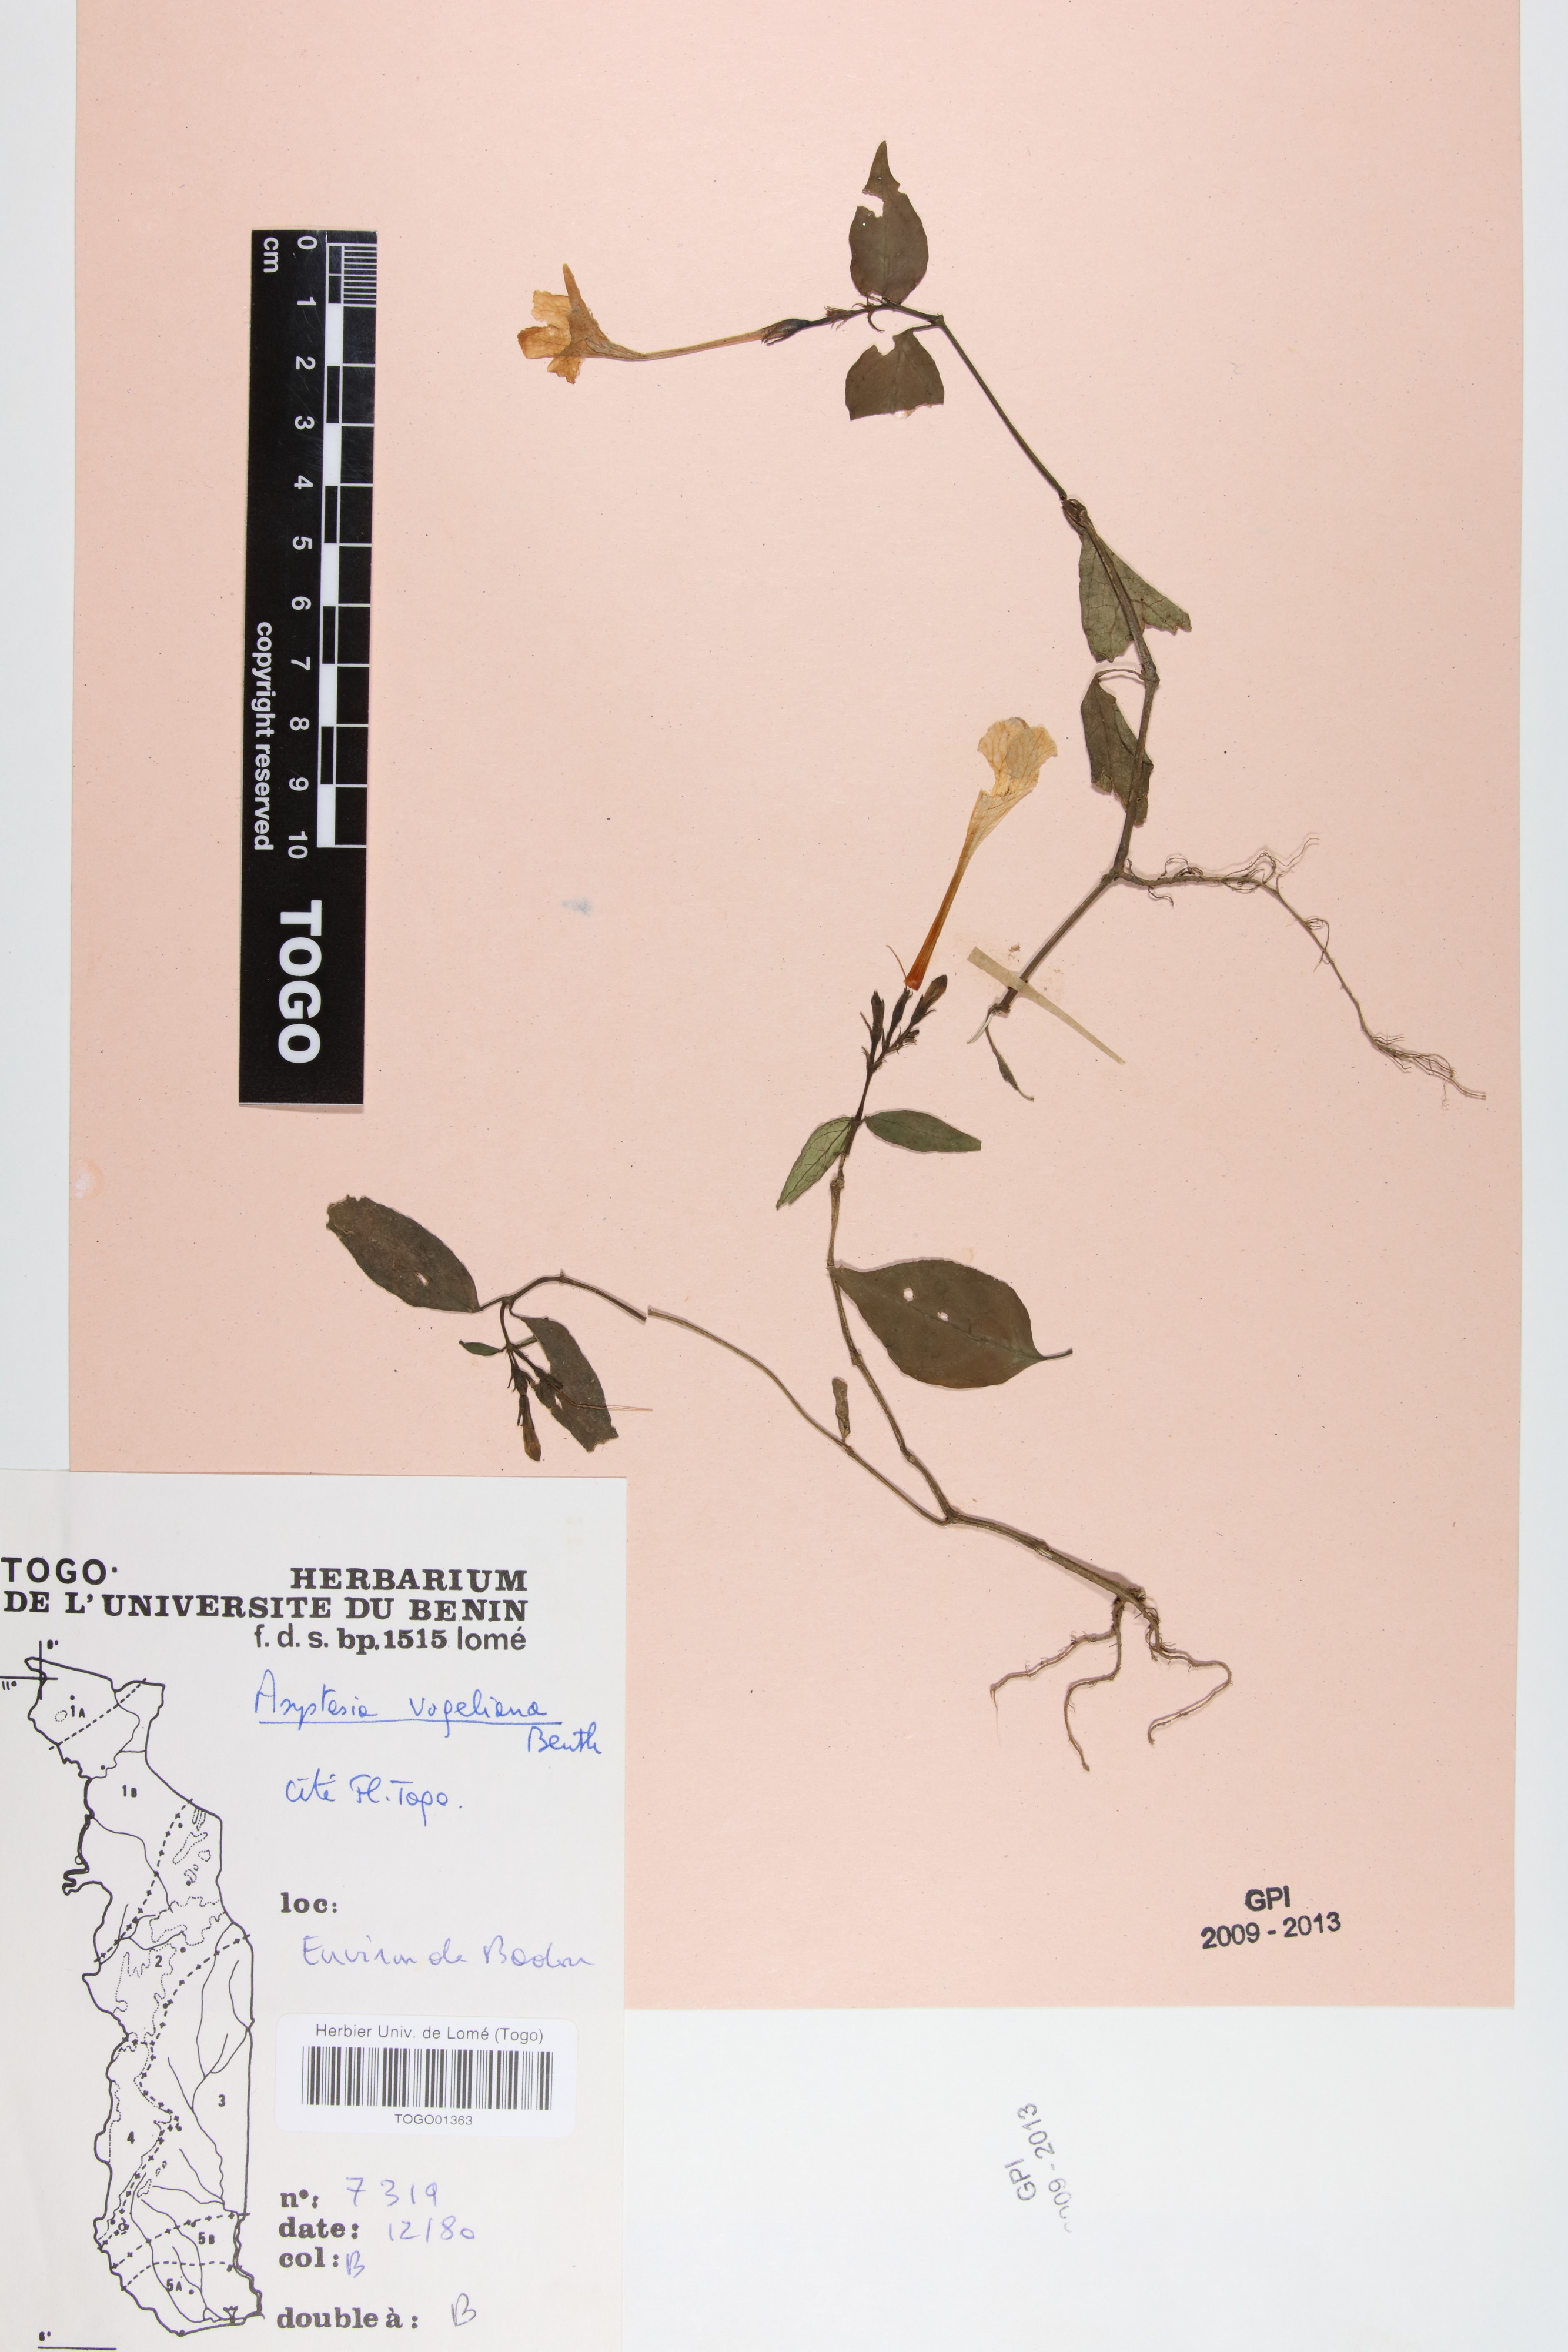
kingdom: Plantae
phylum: Tracheophyta
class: Magnoliopsida
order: Lamiales
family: Acanthaceae
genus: Asystasia
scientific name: Asystasia vogeliana
